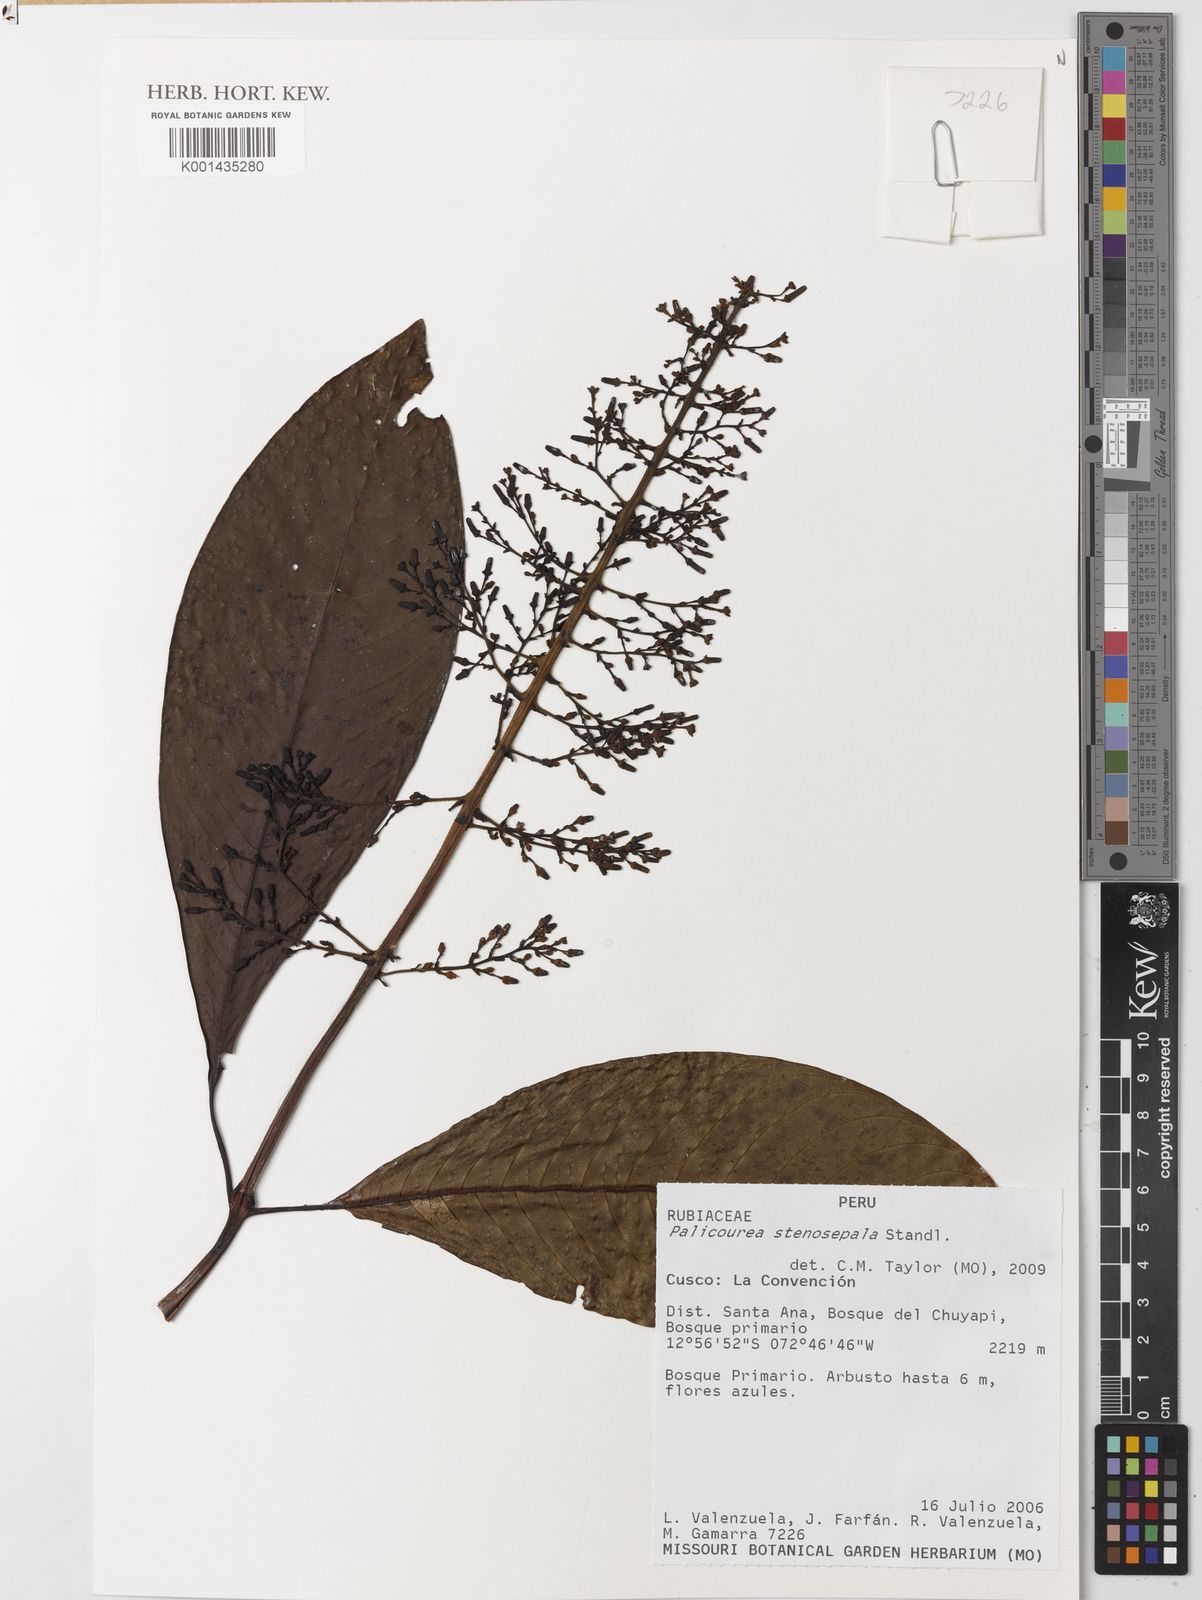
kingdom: Plantae
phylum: Tracheophyta
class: Magnoliopsida
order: Gentianales
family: Rubiaceae
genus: Palicourea
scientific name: Palicourea stenosepala
